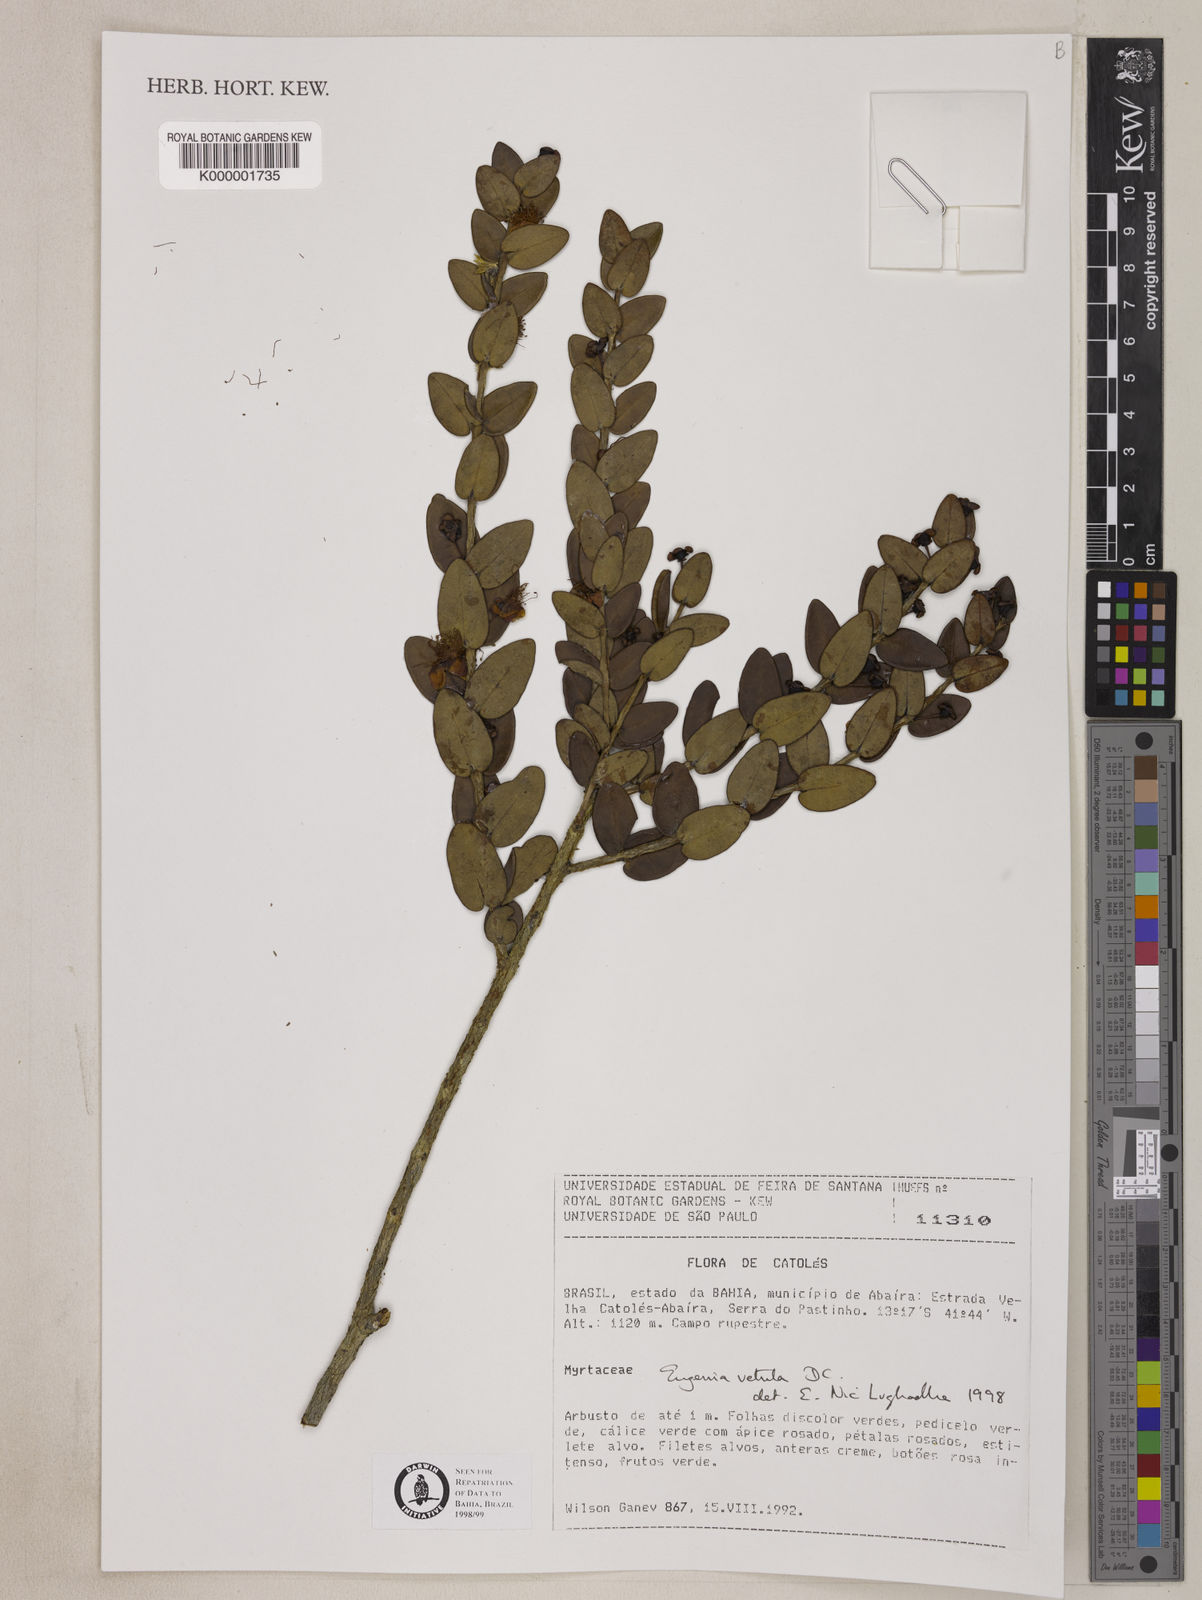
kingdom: Plantae
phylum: Tracheophyta
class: Magnoliopsida
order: Myrtales
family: Myrtaceae
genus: Eugenia
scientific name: Eugenia vetula
